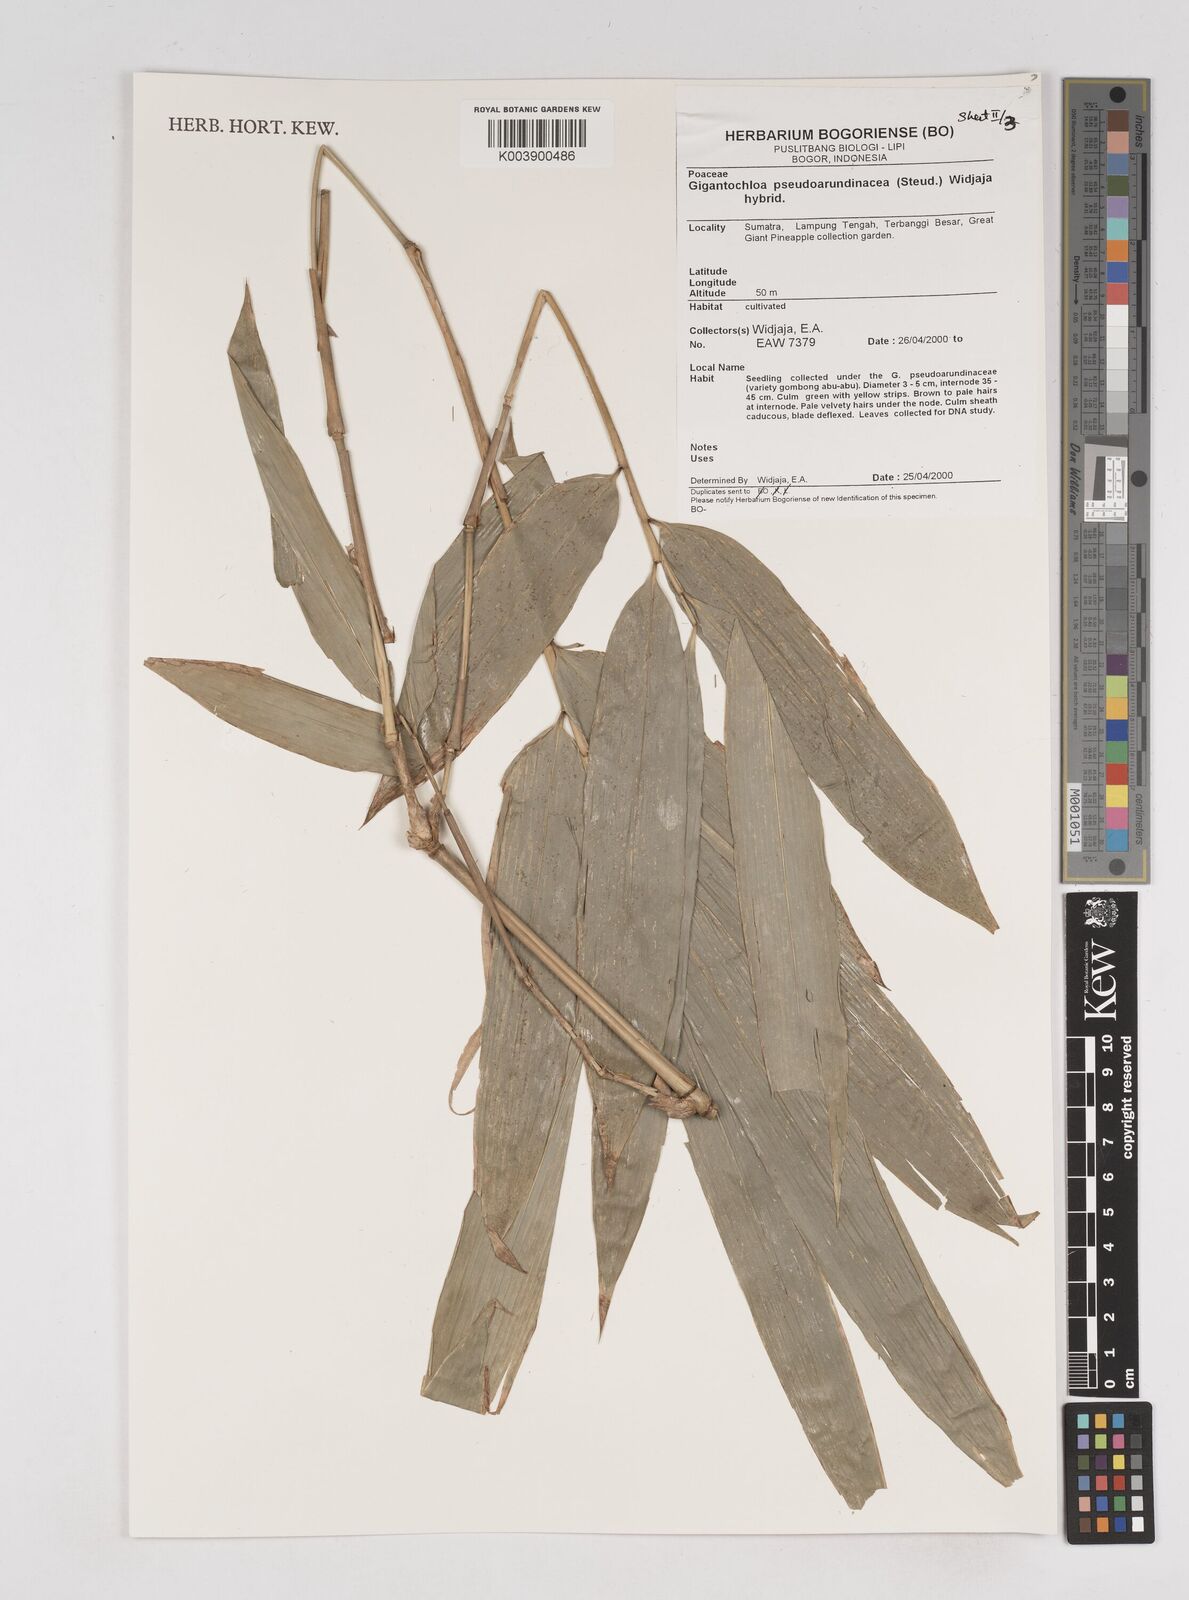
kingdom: Plantae
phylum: Tracheophyta
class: Liliopsida
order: Poales
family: Poaceae
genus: Gigantochloa
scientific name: Gigantochloa verticillata
